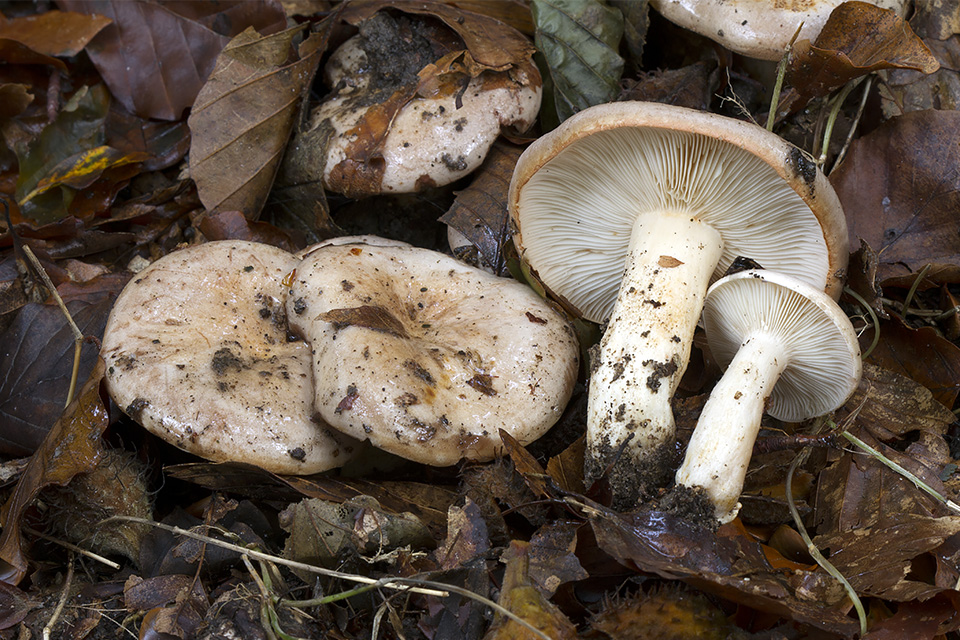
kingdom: Fungi
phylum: Basidiomycota
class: Agaricomycetes
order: Russulales
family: Russulaceae
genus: Lactarius
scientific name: Lactarius pallidus
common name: bleg mælkehat
